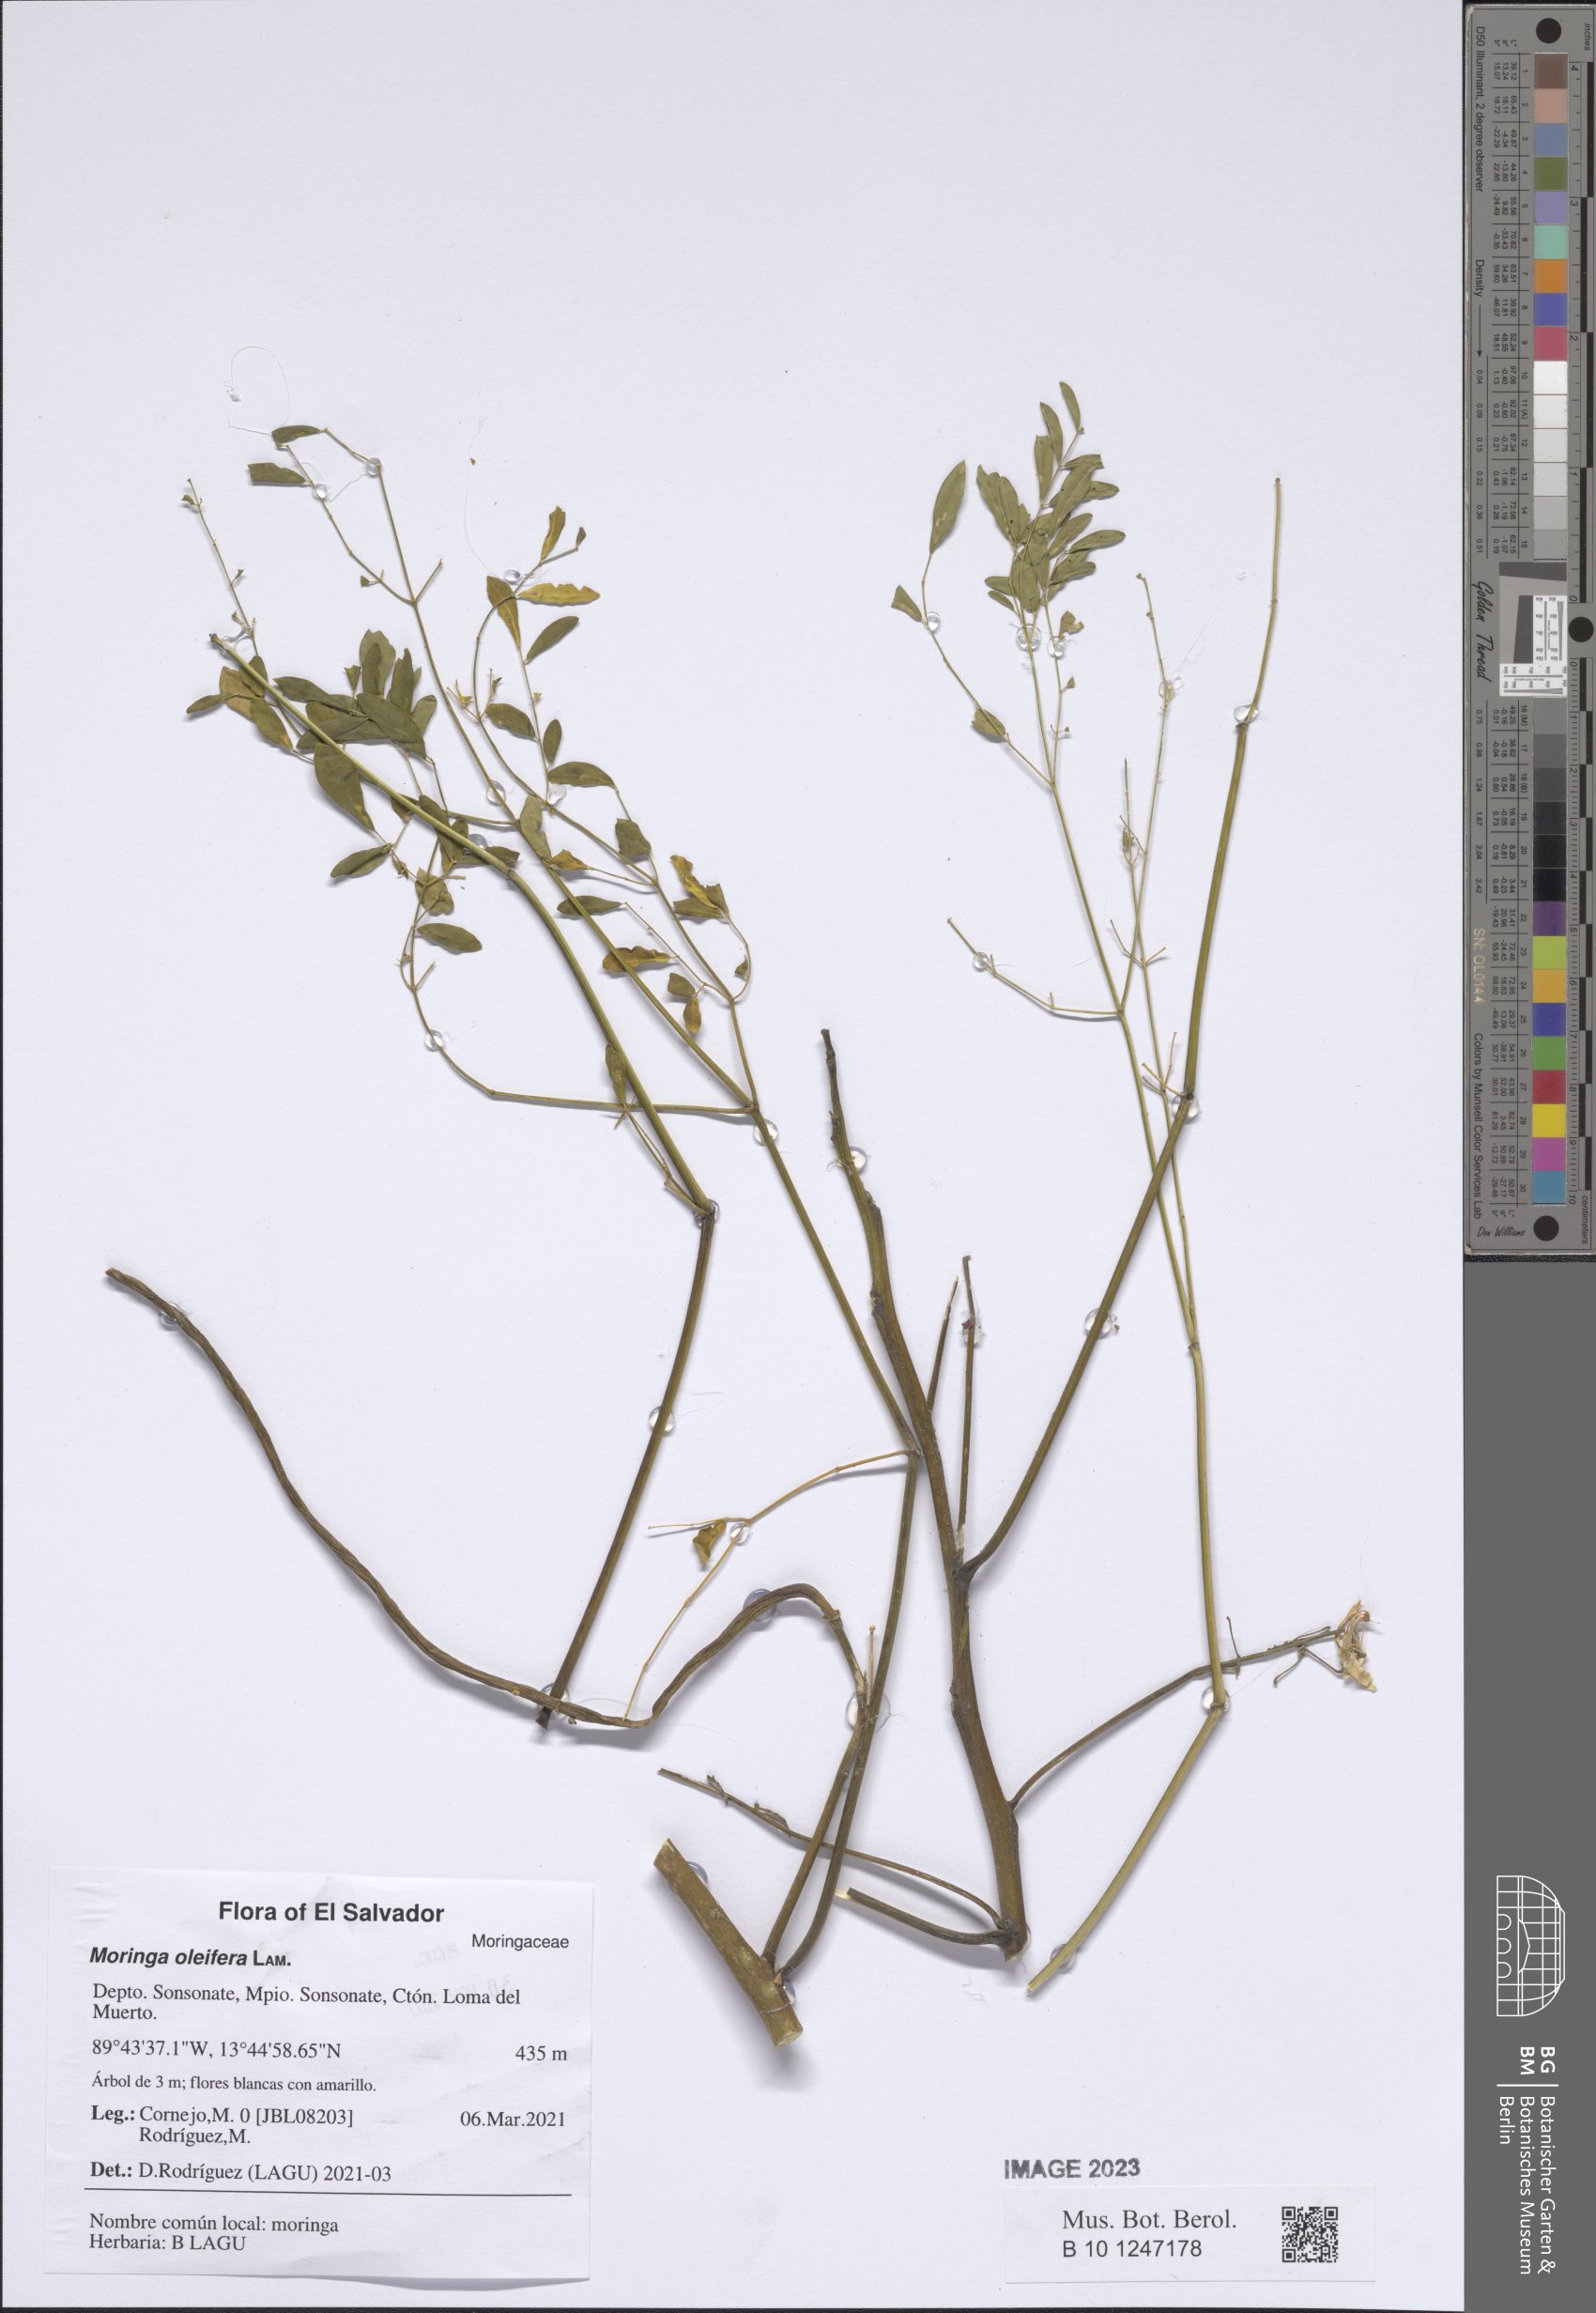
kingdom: Plantae
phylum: Tracheophyta
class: Magnoliopsida
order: Brassicales
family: Moringaceae
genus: Moringa
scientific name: Moringa oleifera
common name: Horseradish-tree
